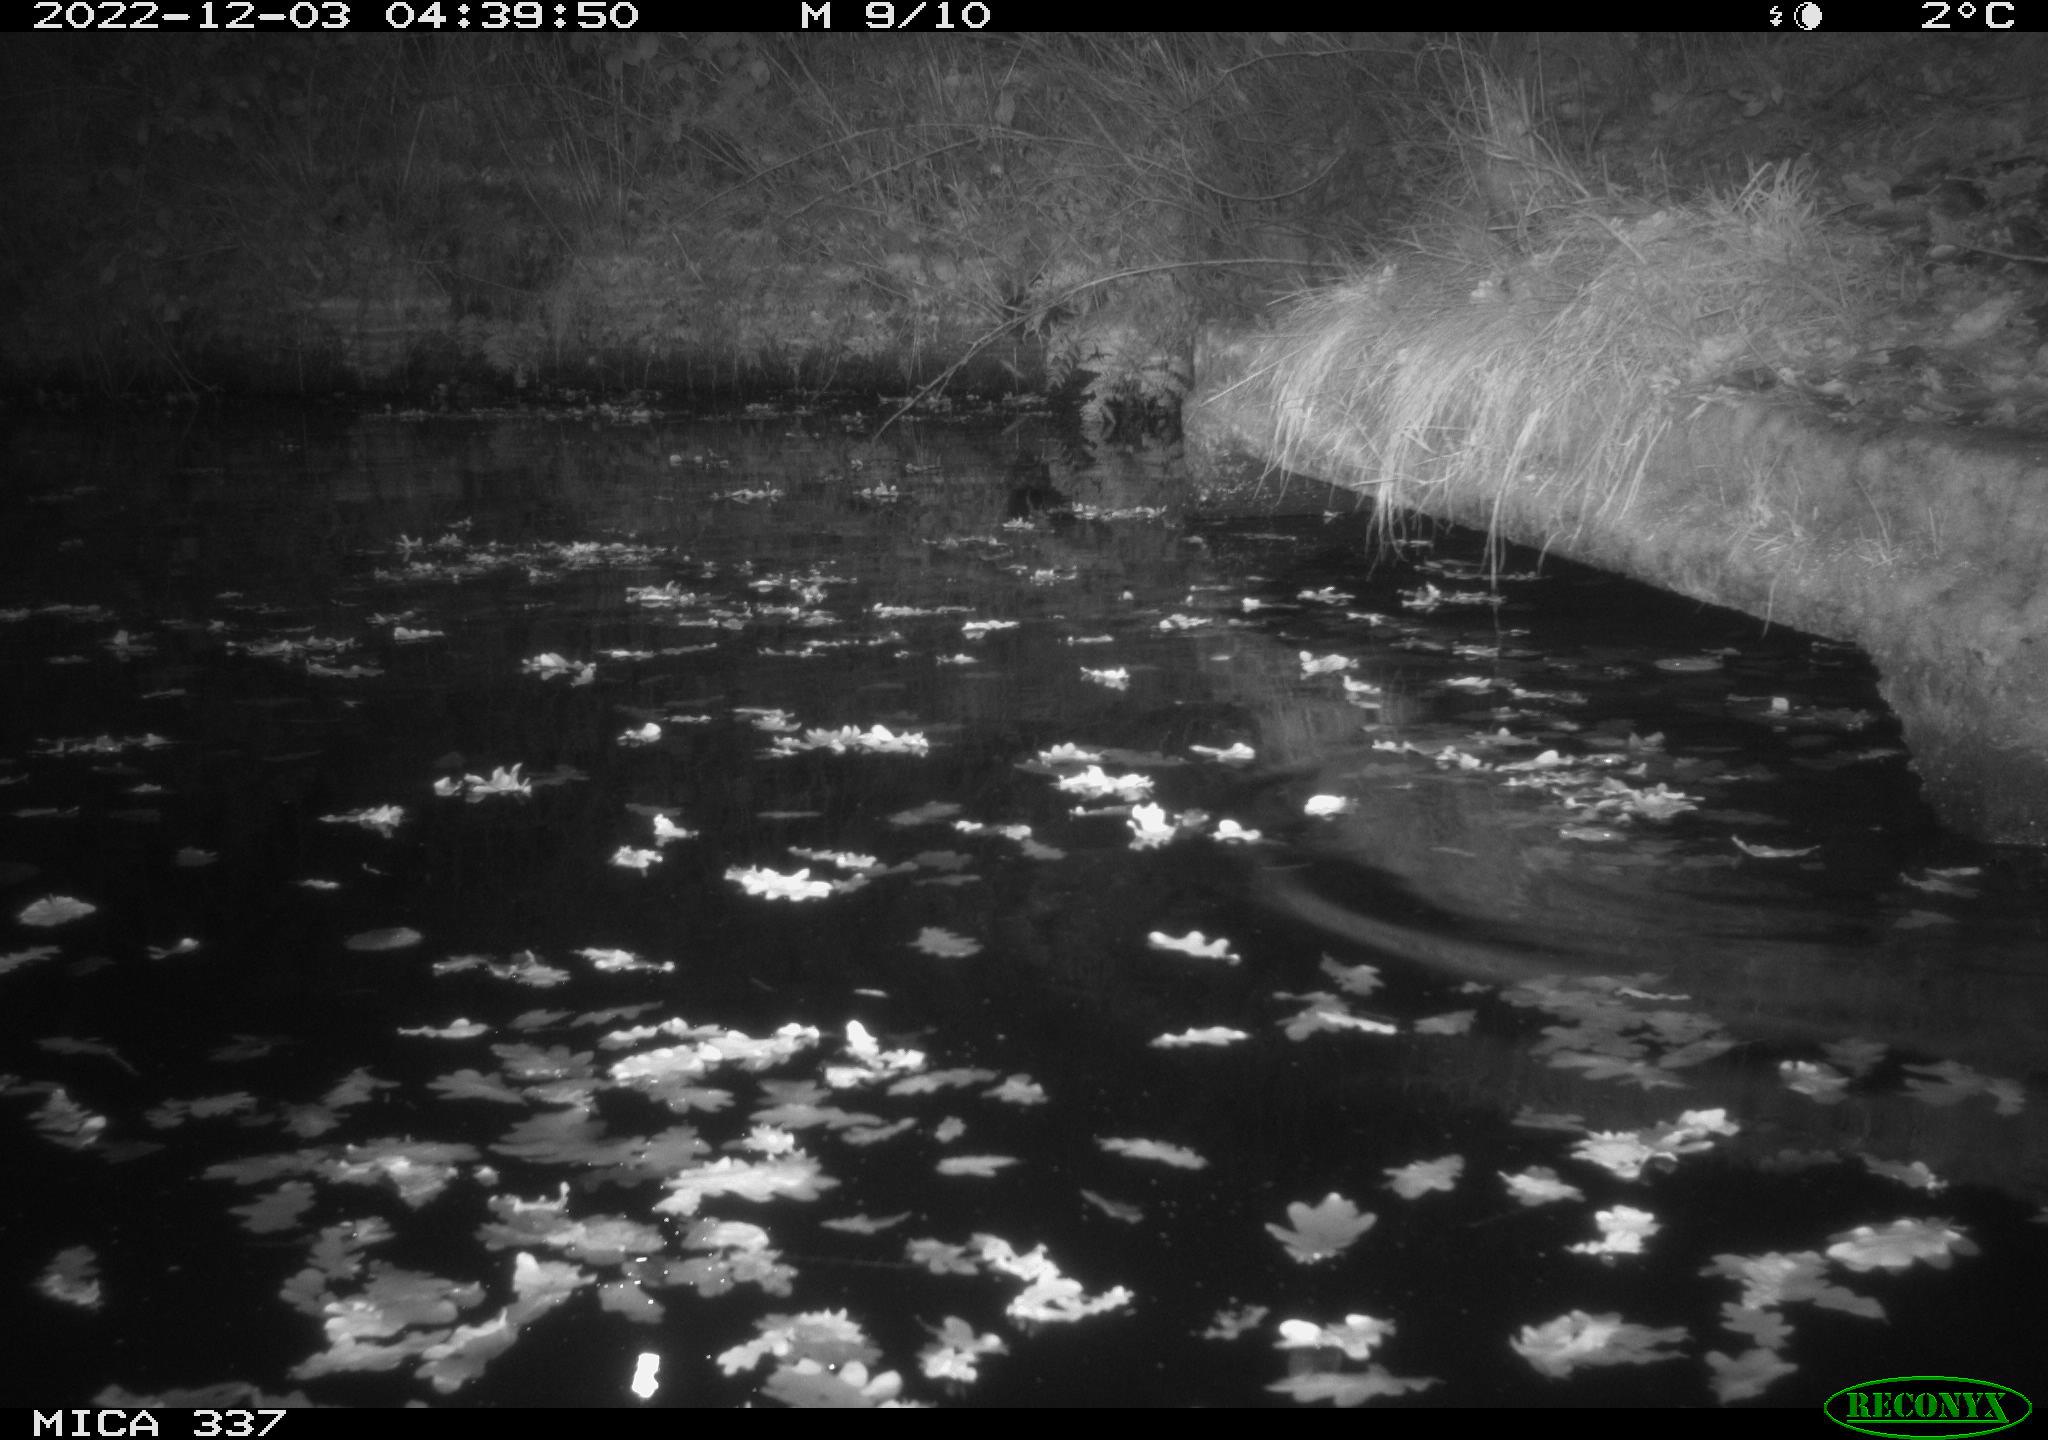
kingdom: Animalia
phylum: Chordata
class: Mammalia
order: Rodentia
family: Muridae
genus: Rattus
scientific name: Rattus norvegicus
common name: Brown rat
